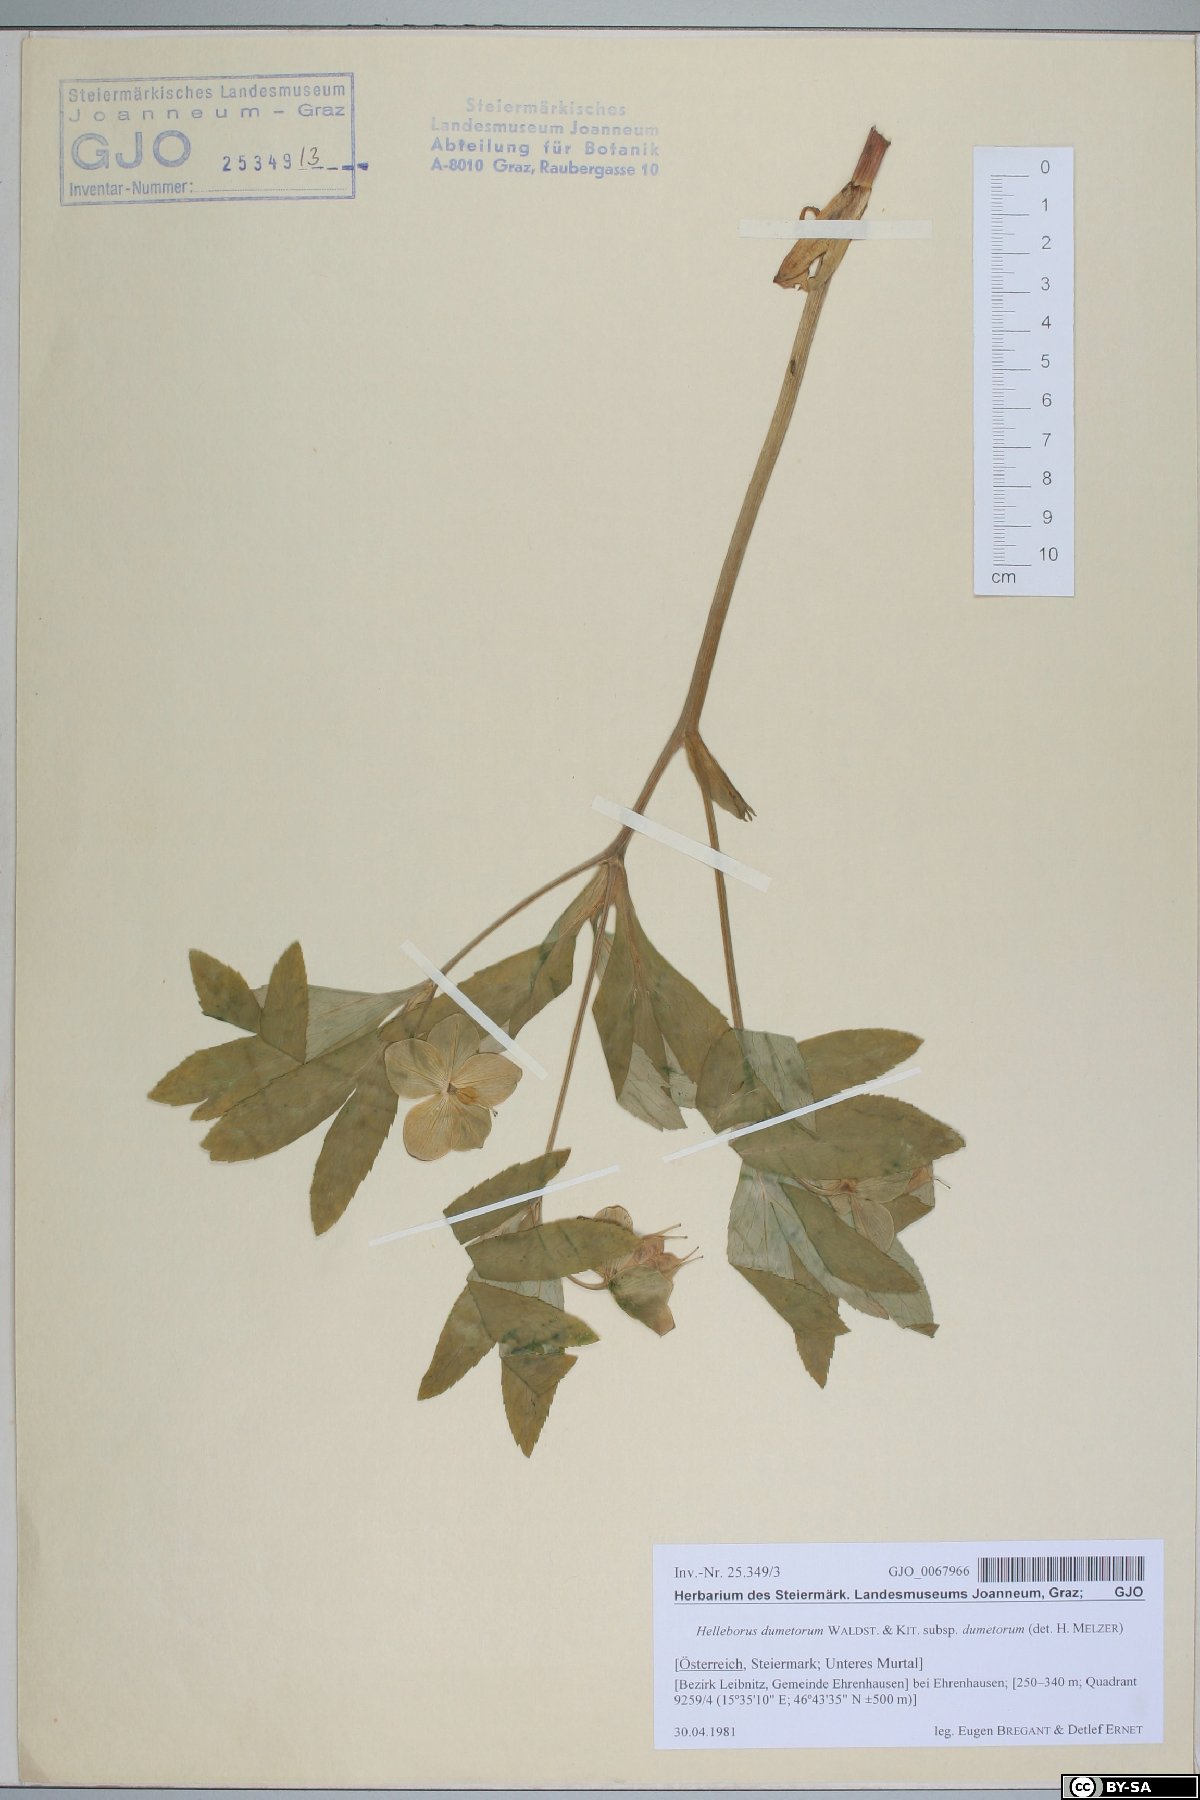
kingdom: Plantae
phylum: Tracheophyta
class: Magnoliopsida
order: Ranunculales
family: Ranunculaceae
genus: Helleborus
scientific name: Helleborus dumetorum
